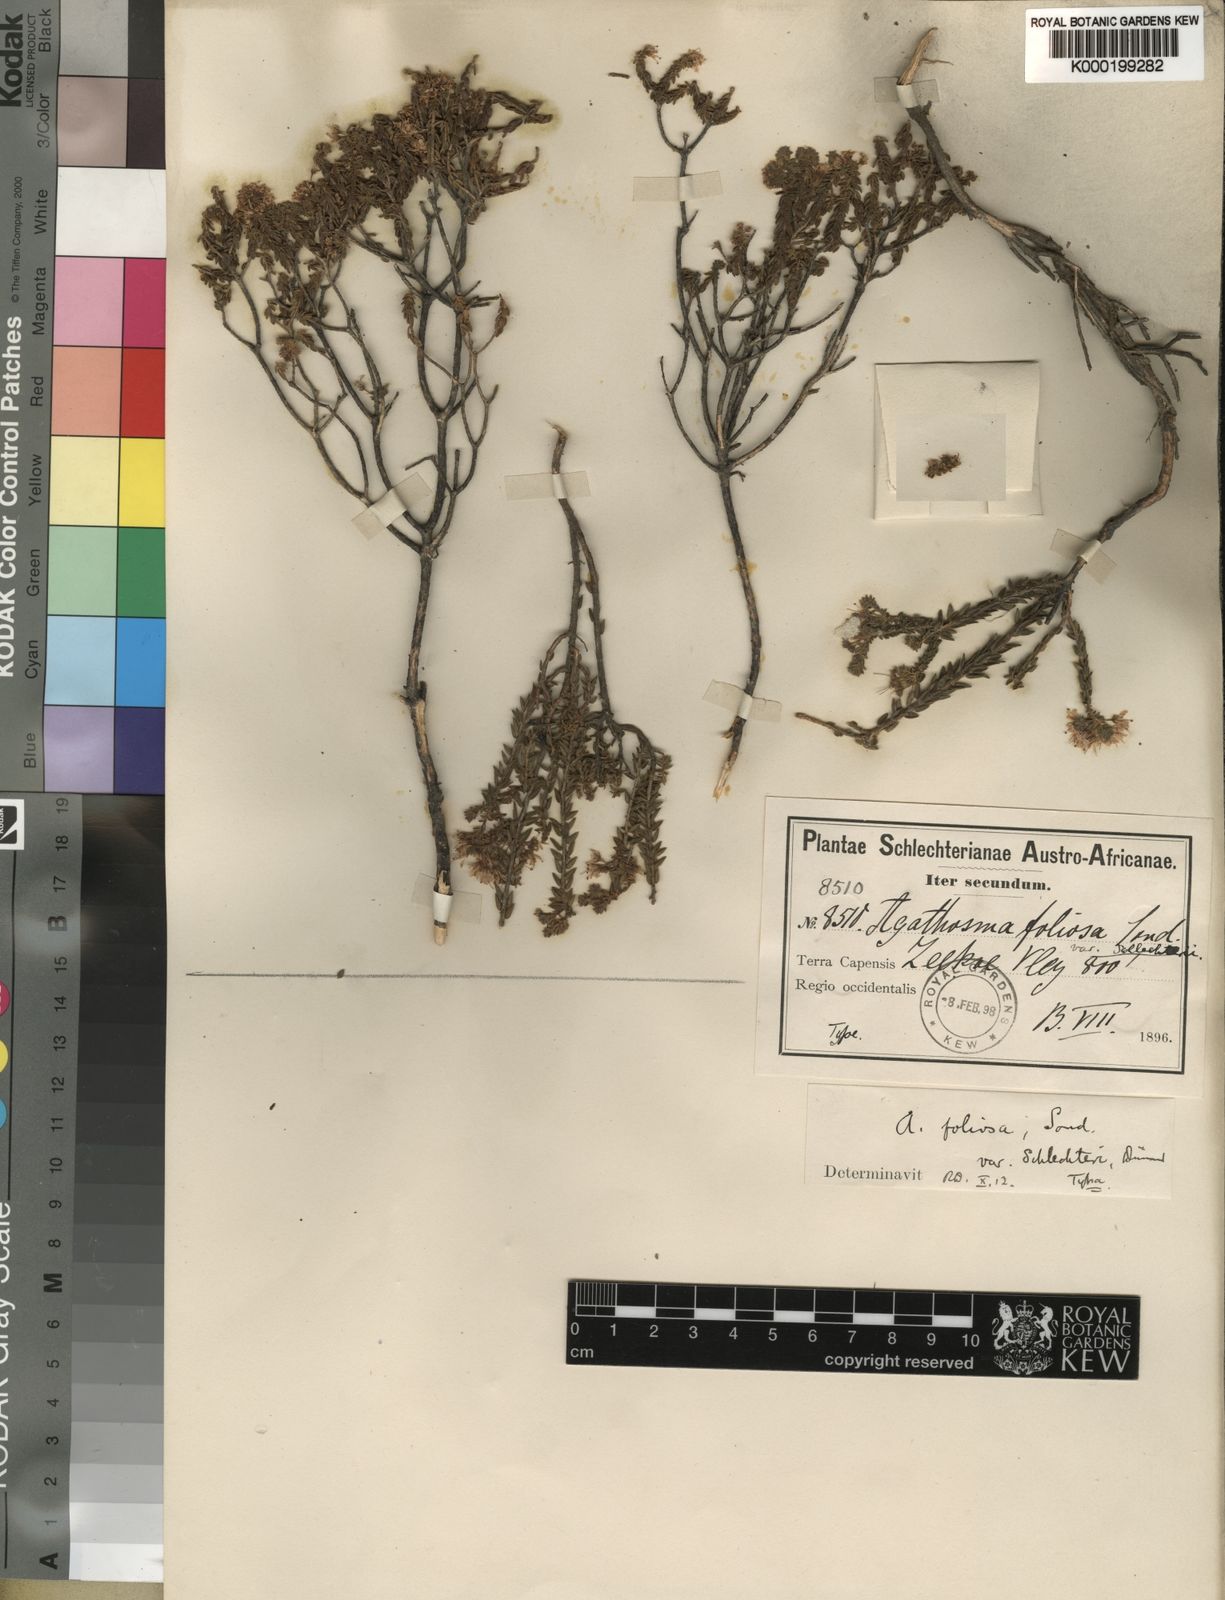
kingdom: Plantae
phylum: Tracheophyta
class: Magnoliopsida
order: Sapindales
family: Rutaceae
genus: Agathosma
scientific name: Agathosma marifolia
